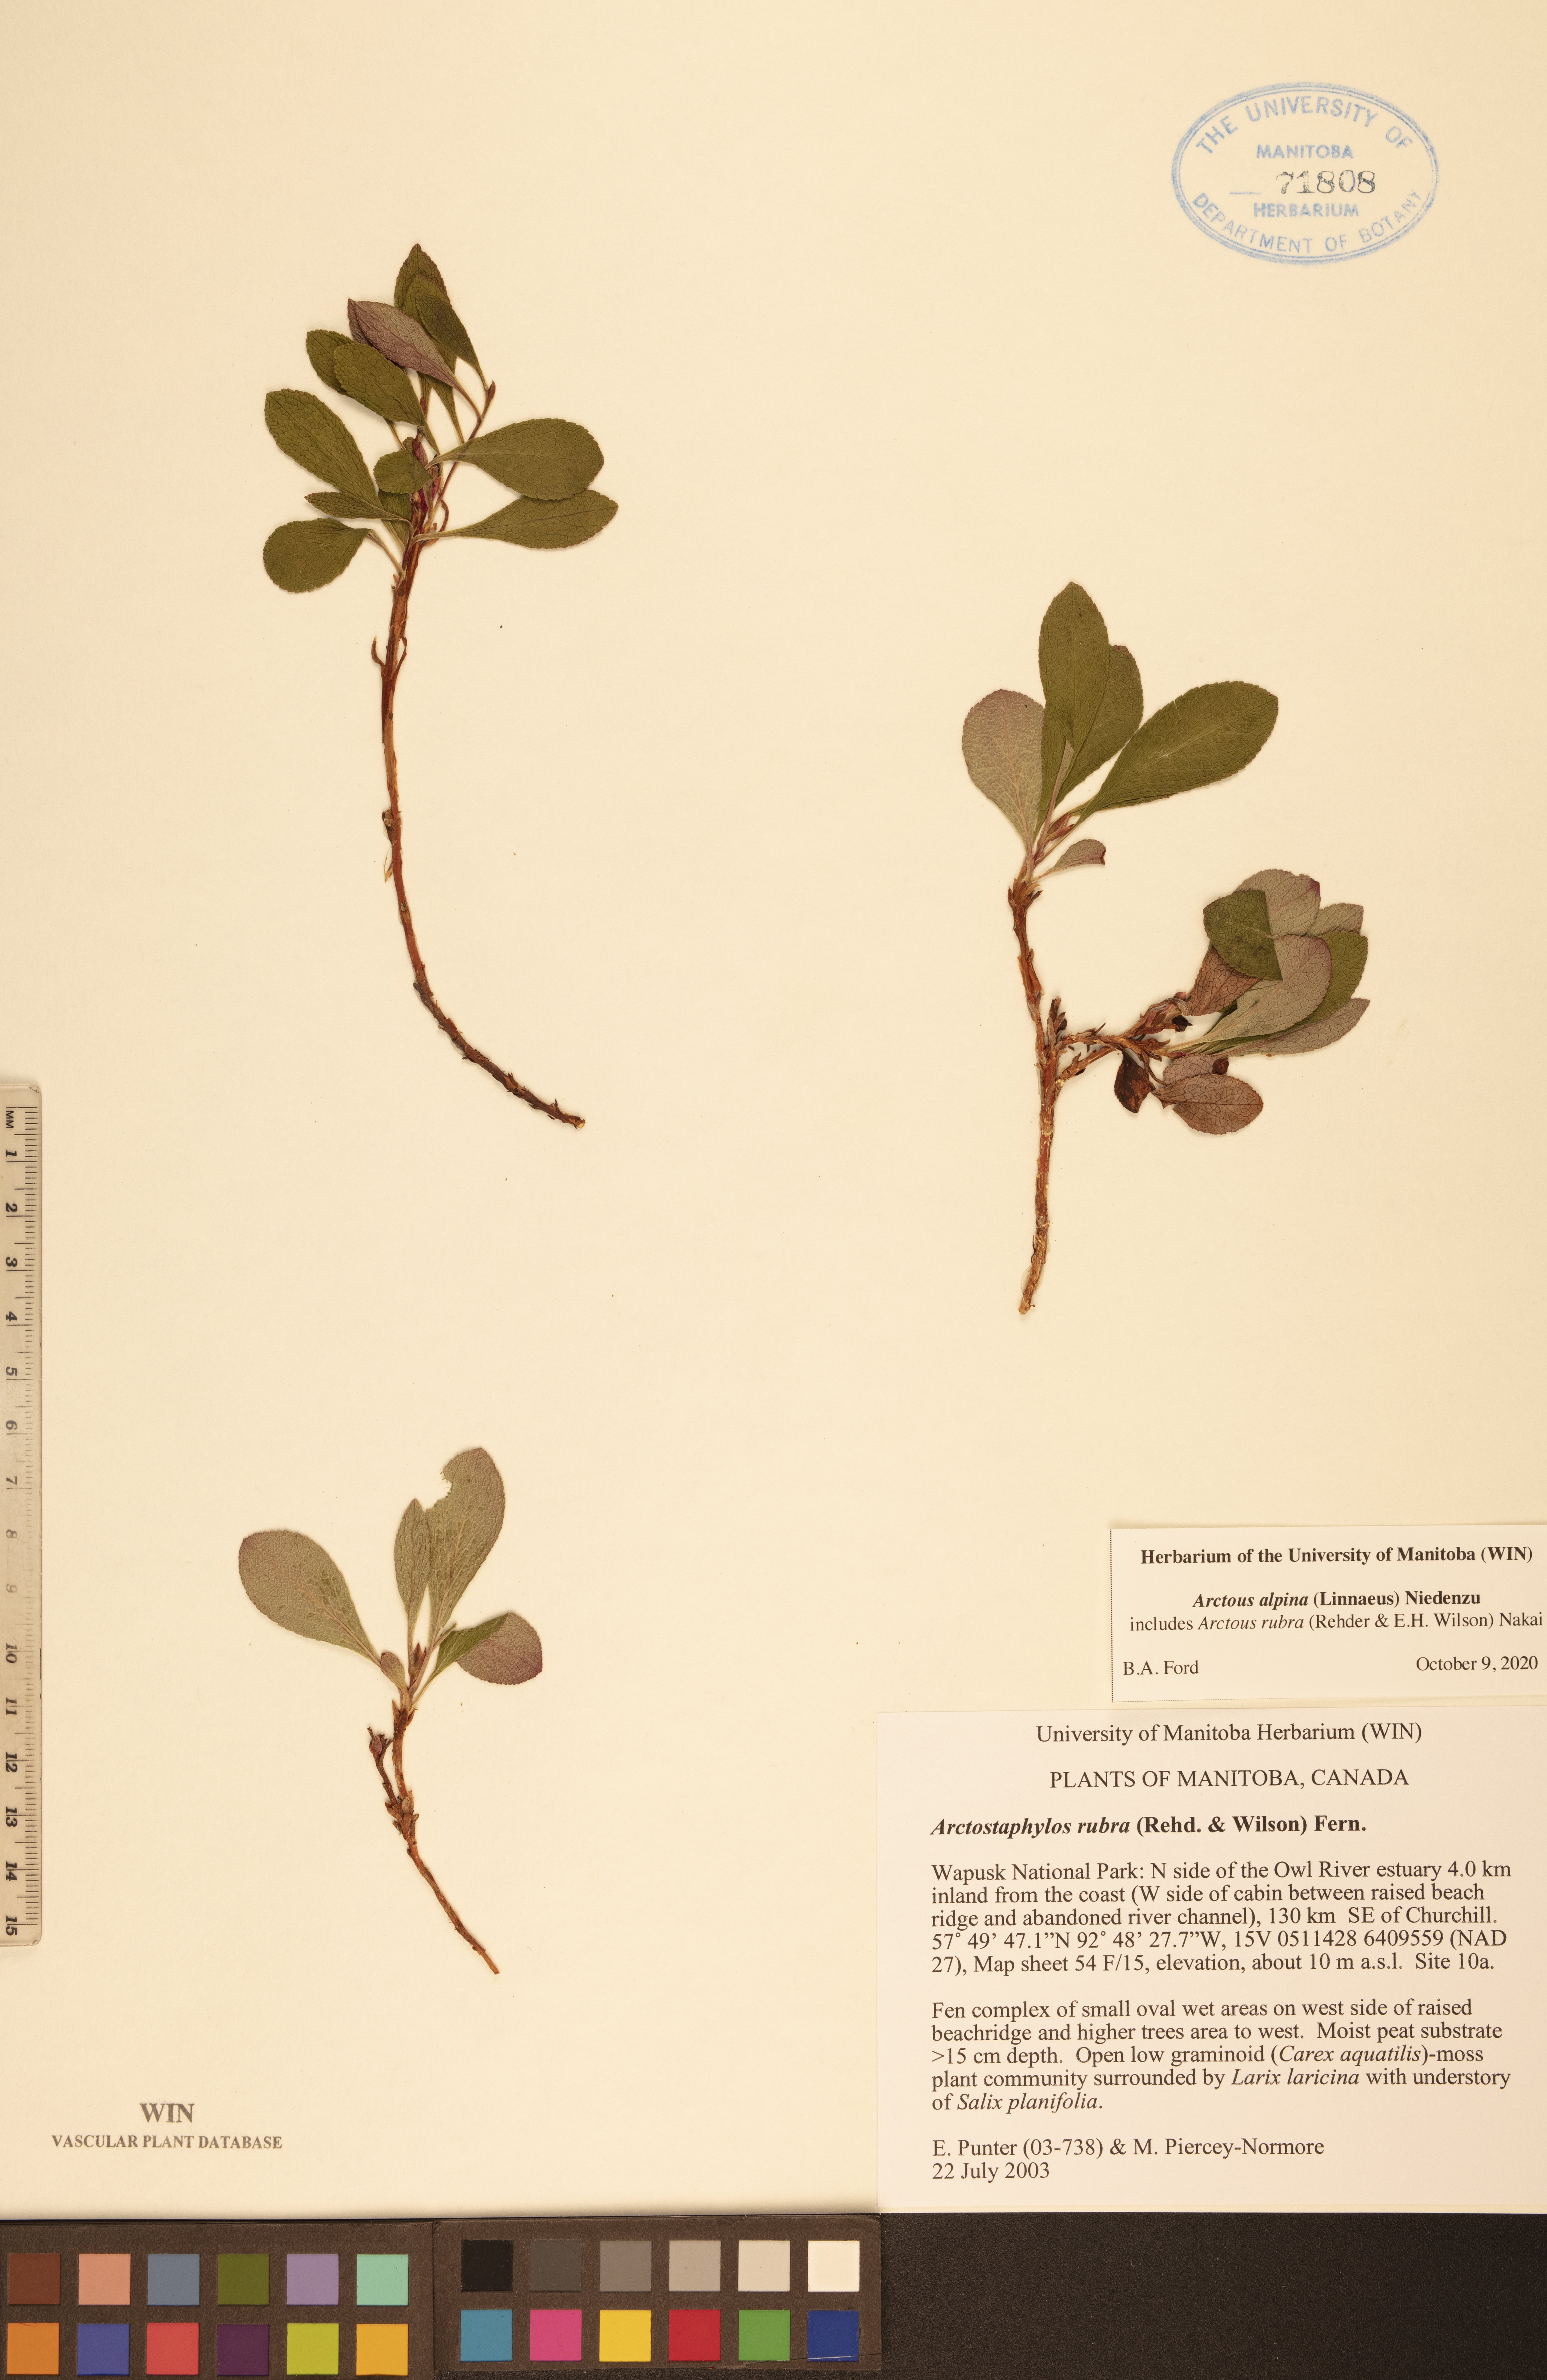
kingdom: Plantae
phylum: Tracheophyta
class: Magnoliopsida
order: Ericales
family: Ericaceae
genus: Arctostaphylos
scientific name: Arctostaphylos alpinus
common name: Alpine bearberry
